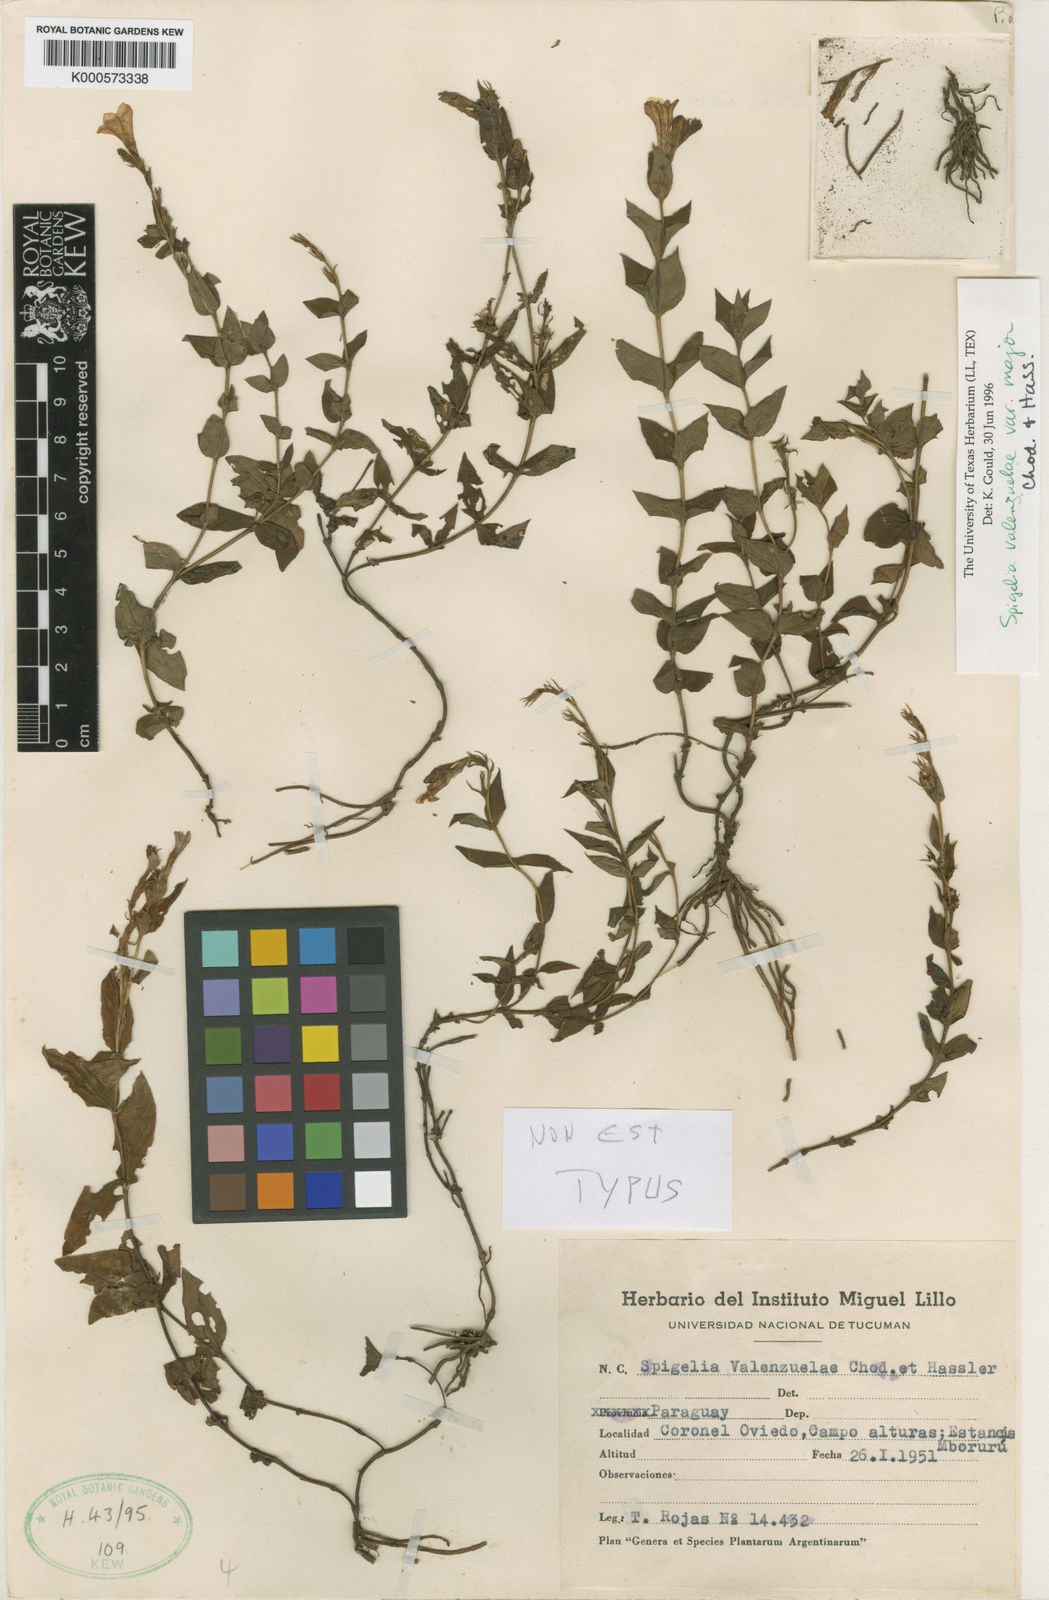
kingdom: Plantae
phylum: Tracheophyta
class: Magnoliopsida
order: Gentianales
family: Loganiaceae
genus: Spigelia
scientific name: Spigelia valenzuelae
